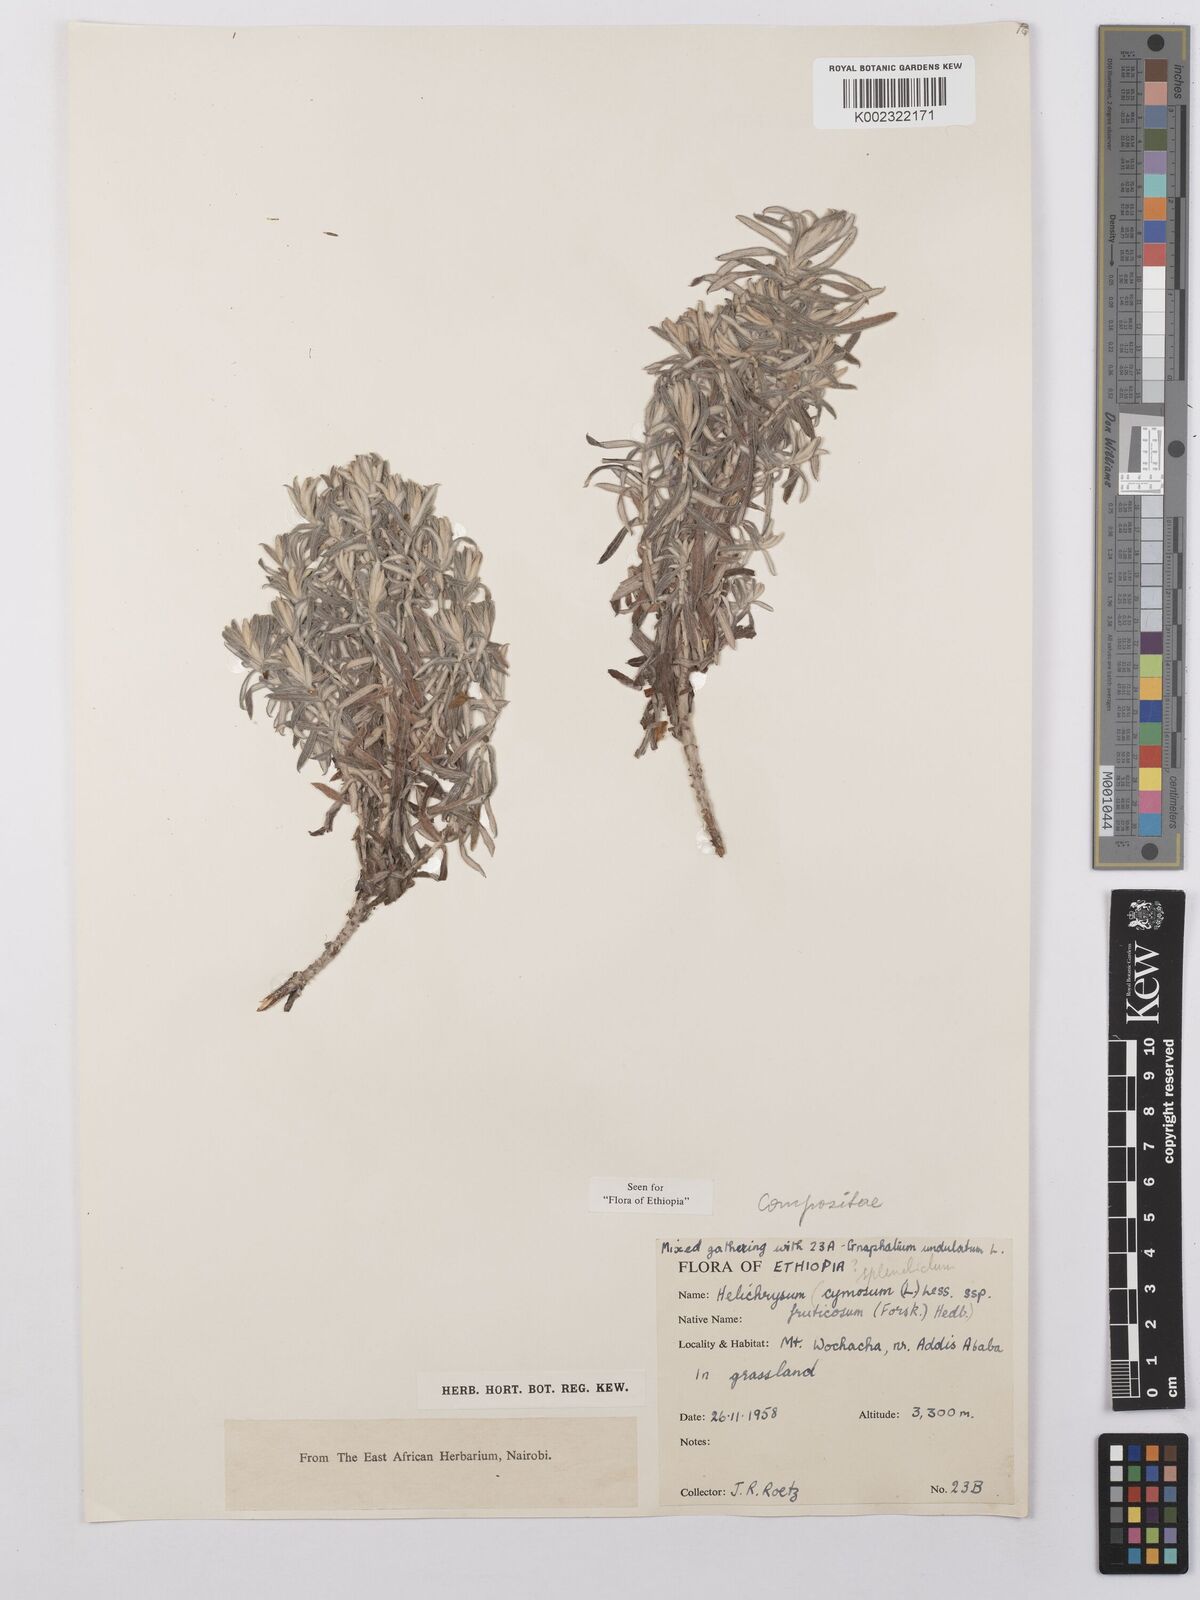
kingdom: Plantae
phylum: Tracheophyta
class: Magnoliopsida
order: Asterales
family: Asteraceae
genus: Helichrysum
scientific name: Helichrysum splendidum
